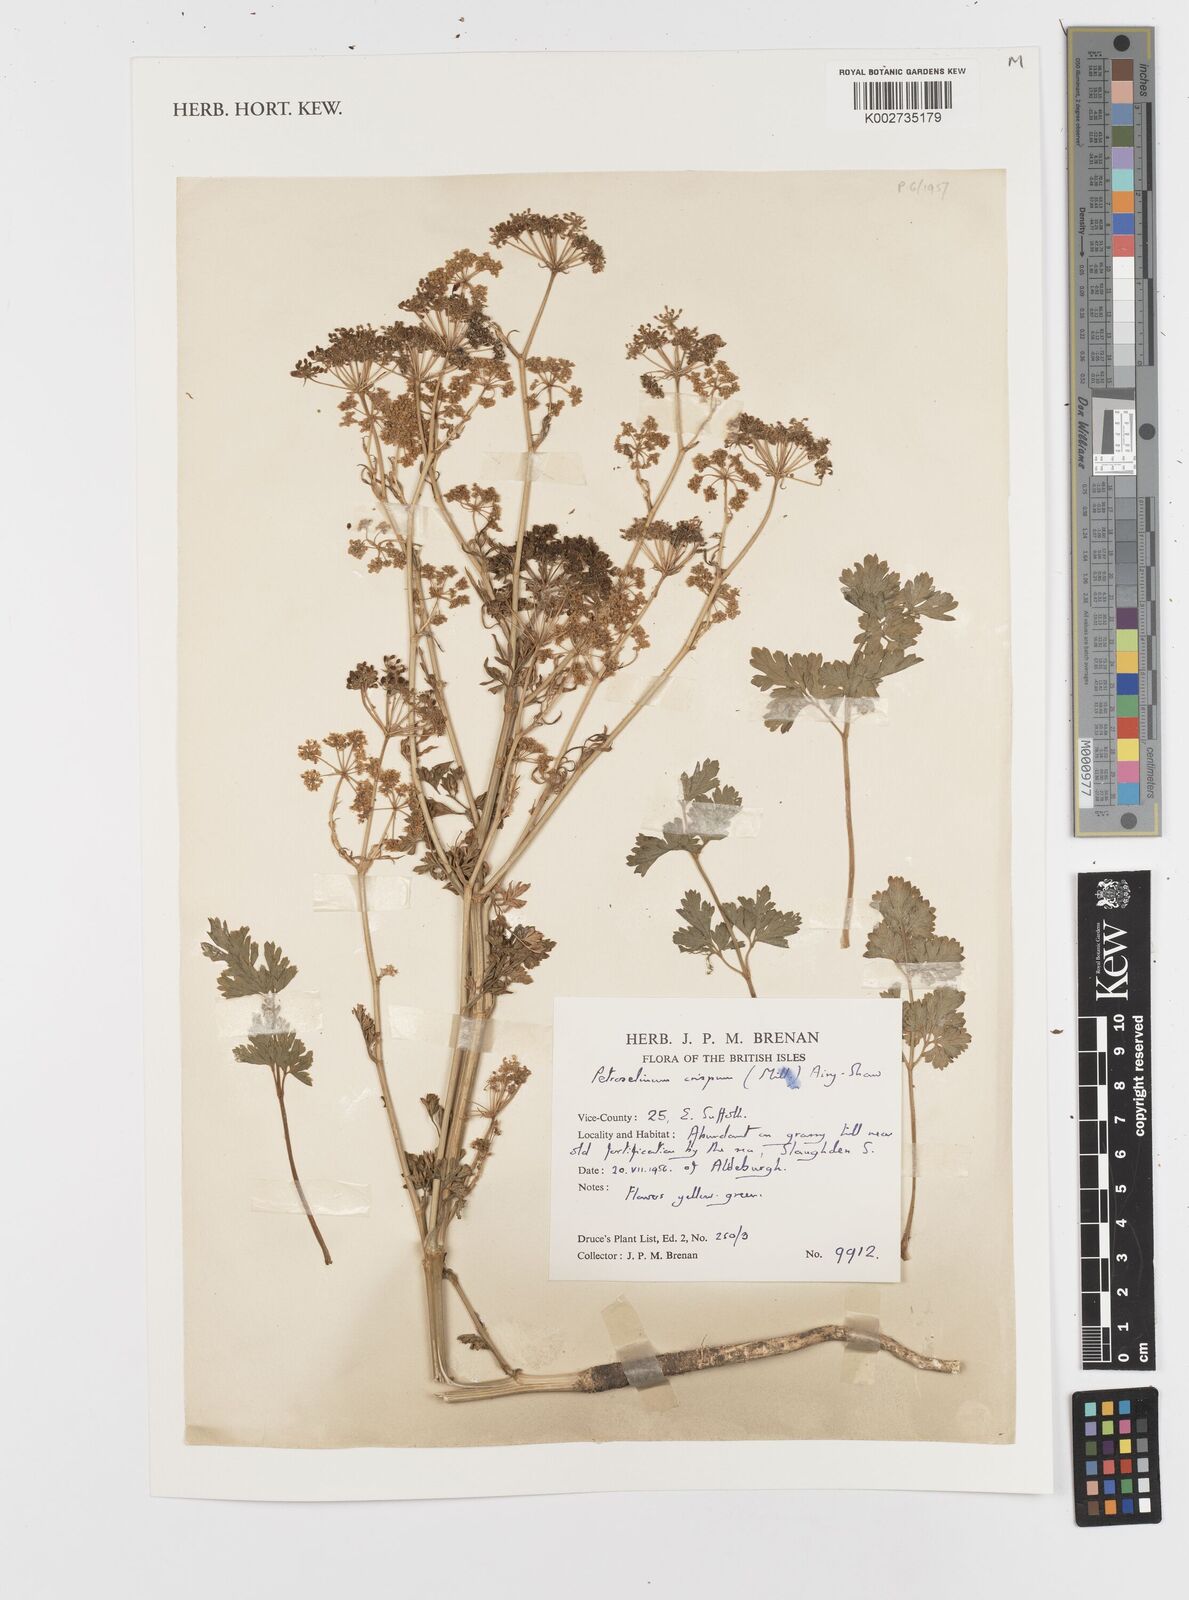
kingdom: Plantae
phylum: Tracheophyta
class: Magnoliopsida
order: Apiales
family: Apiaceae
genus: Petroselinum
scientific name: Petroselinum crispum
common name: Parsley
